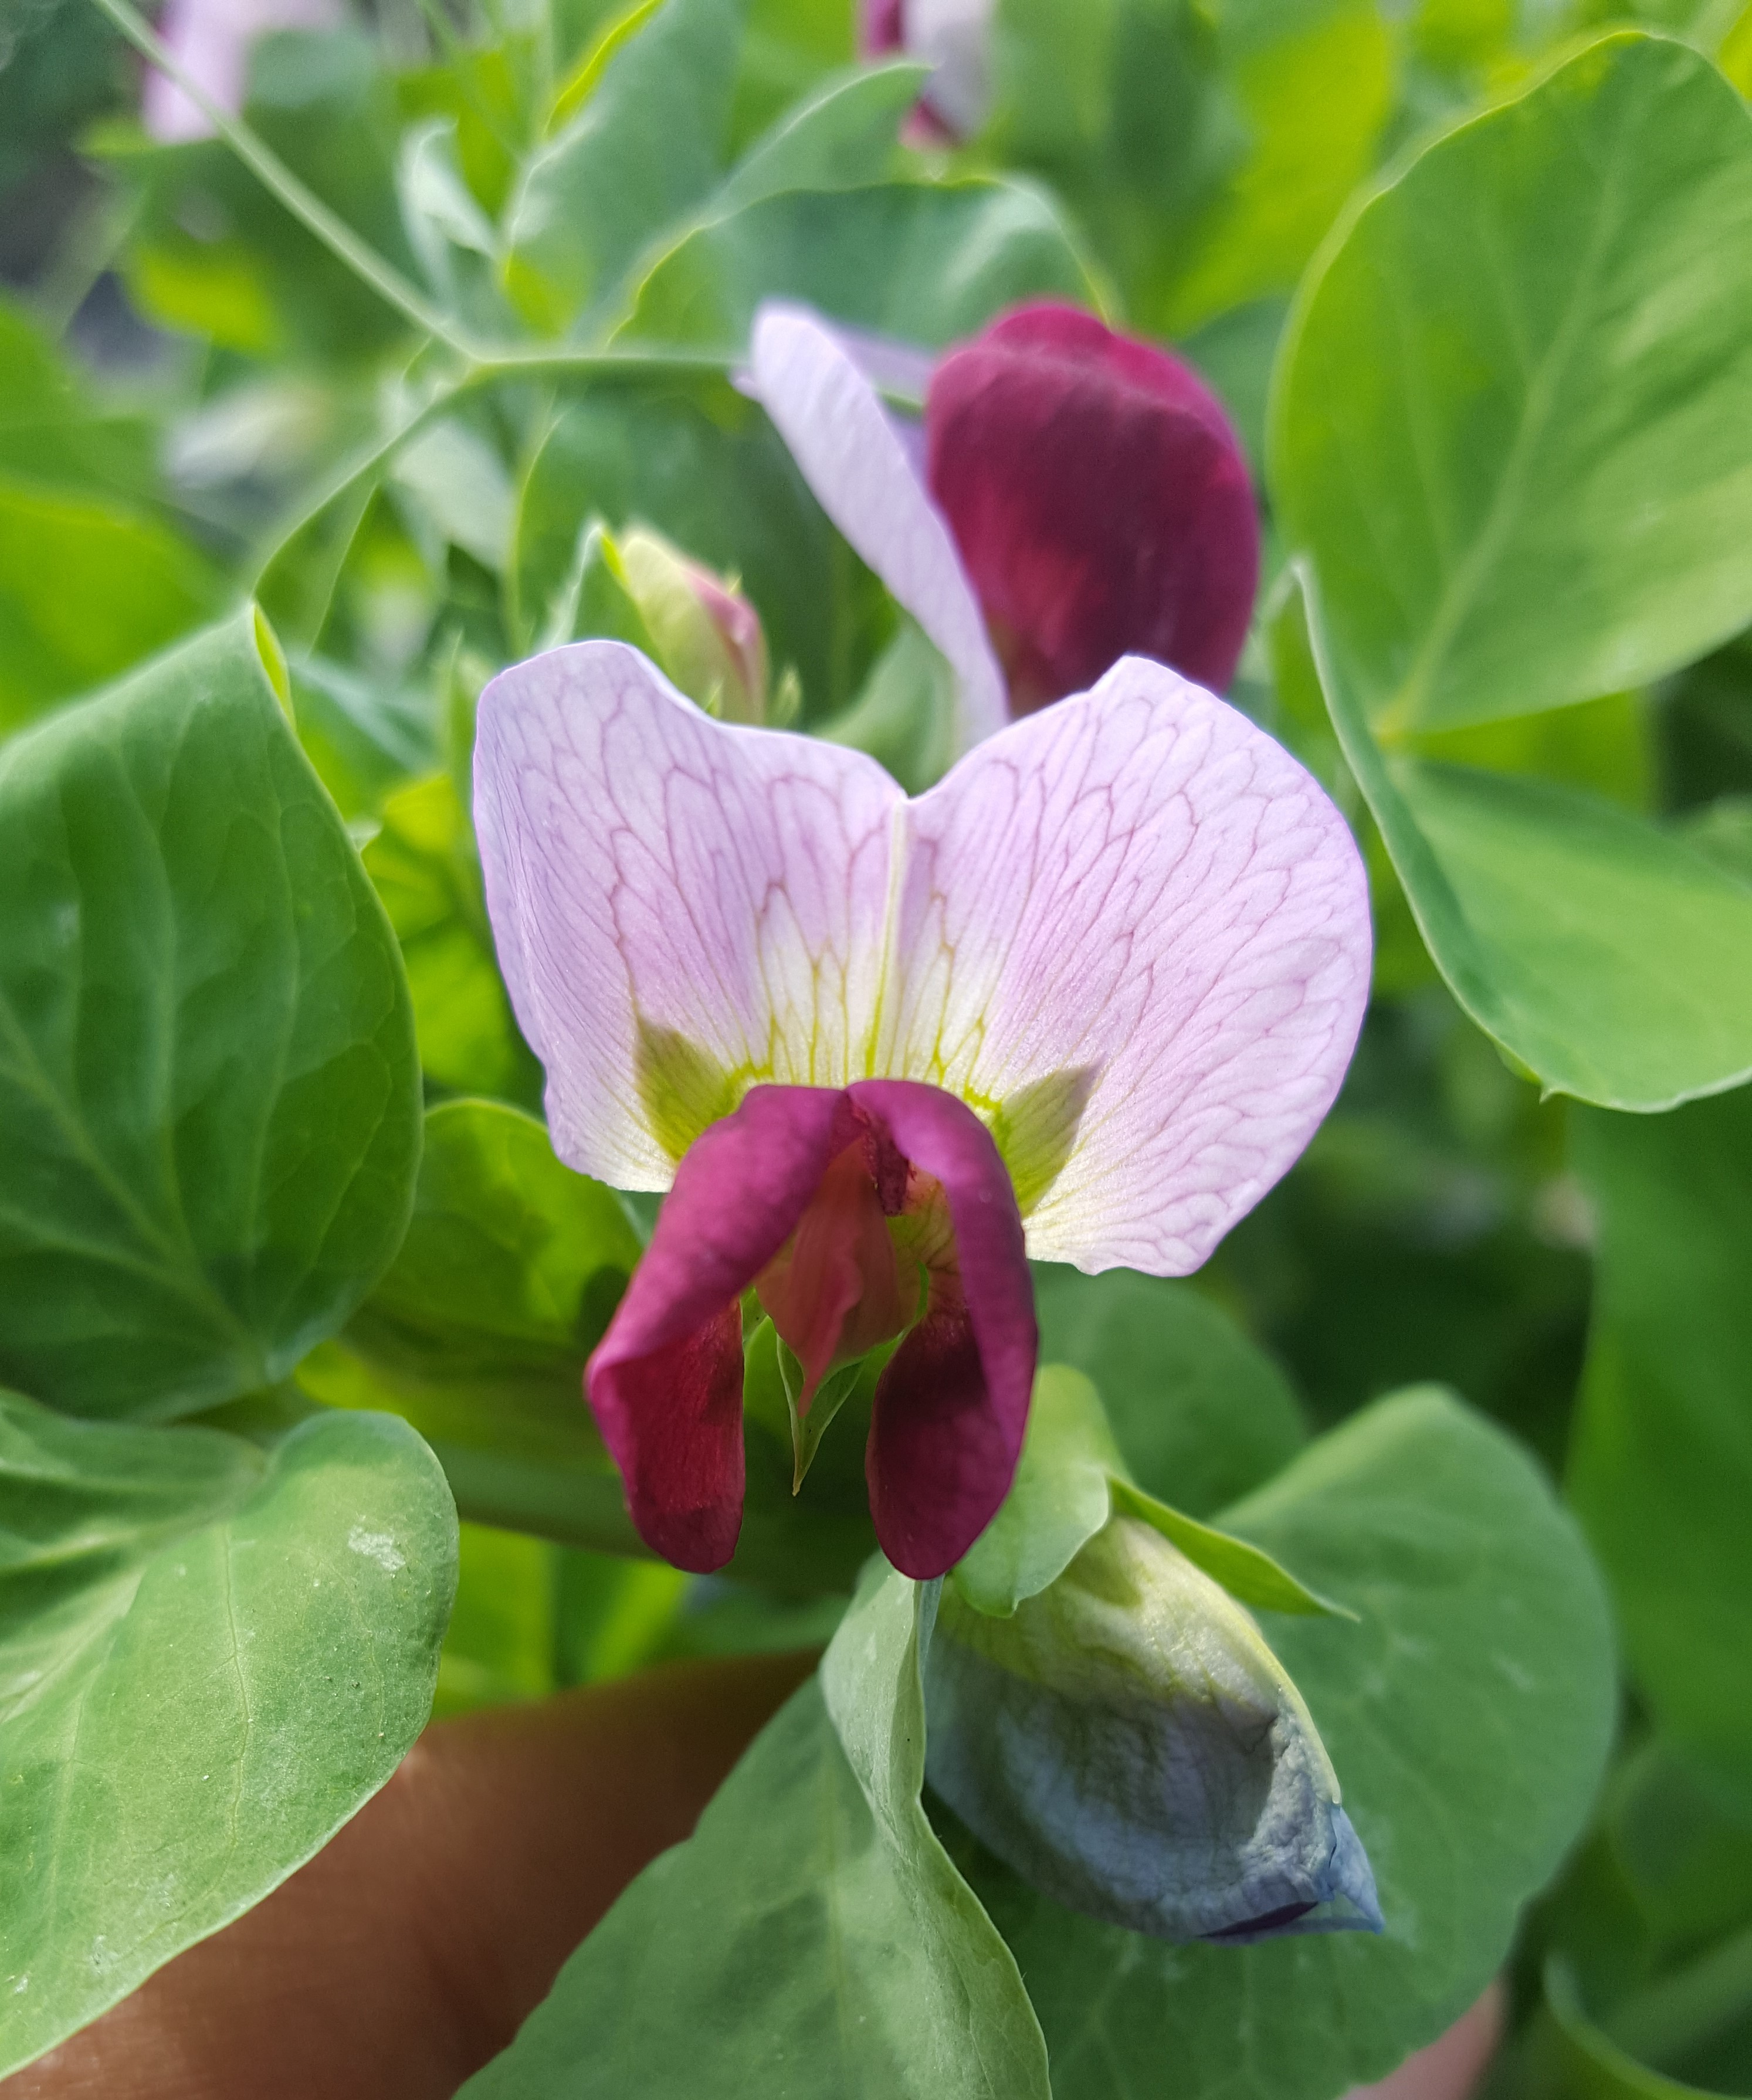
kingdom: Plantae
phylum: Tracheophyta
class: Magnoliopsida
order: Fabales
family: Fabaceae
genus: Lathyrus
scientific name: Lathyrus oleraceus
